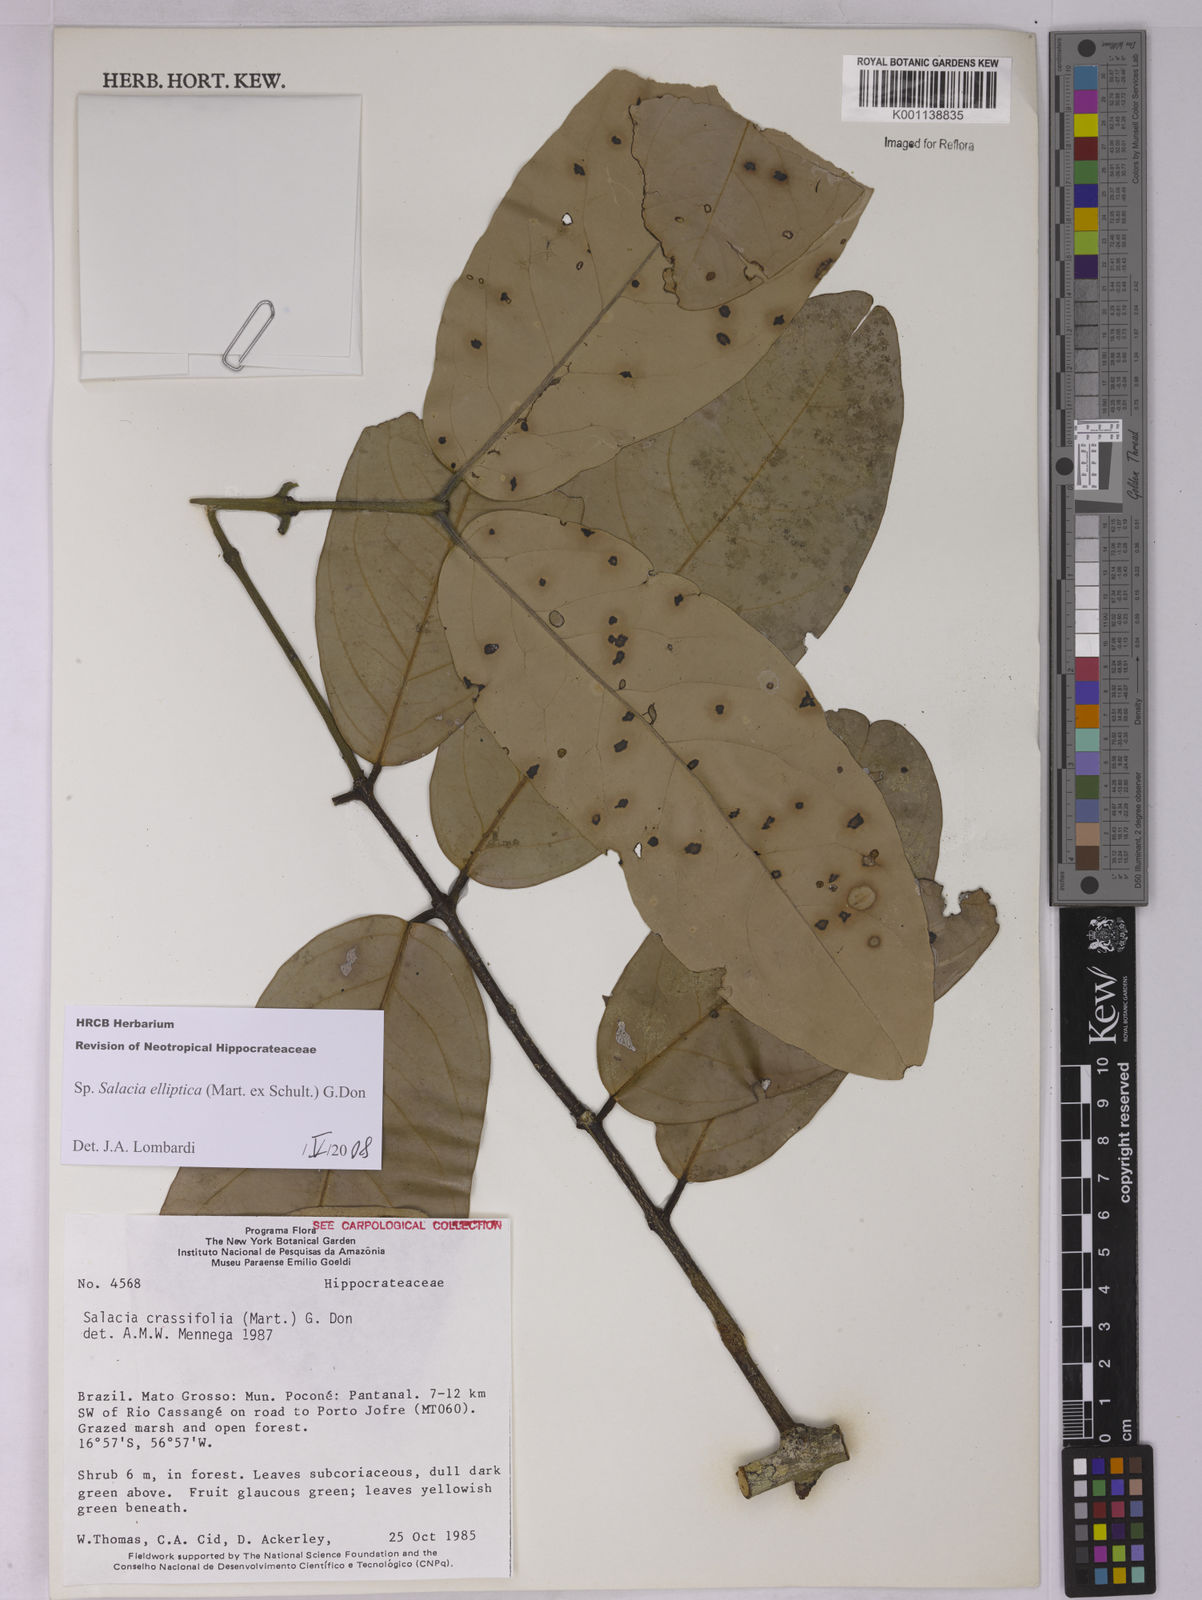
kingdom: Plantae
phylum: Tracheophyta
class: Magnoliopsida
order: Celastrales
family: Celastraceae
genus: Salacia
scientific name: Salacia elliptica
